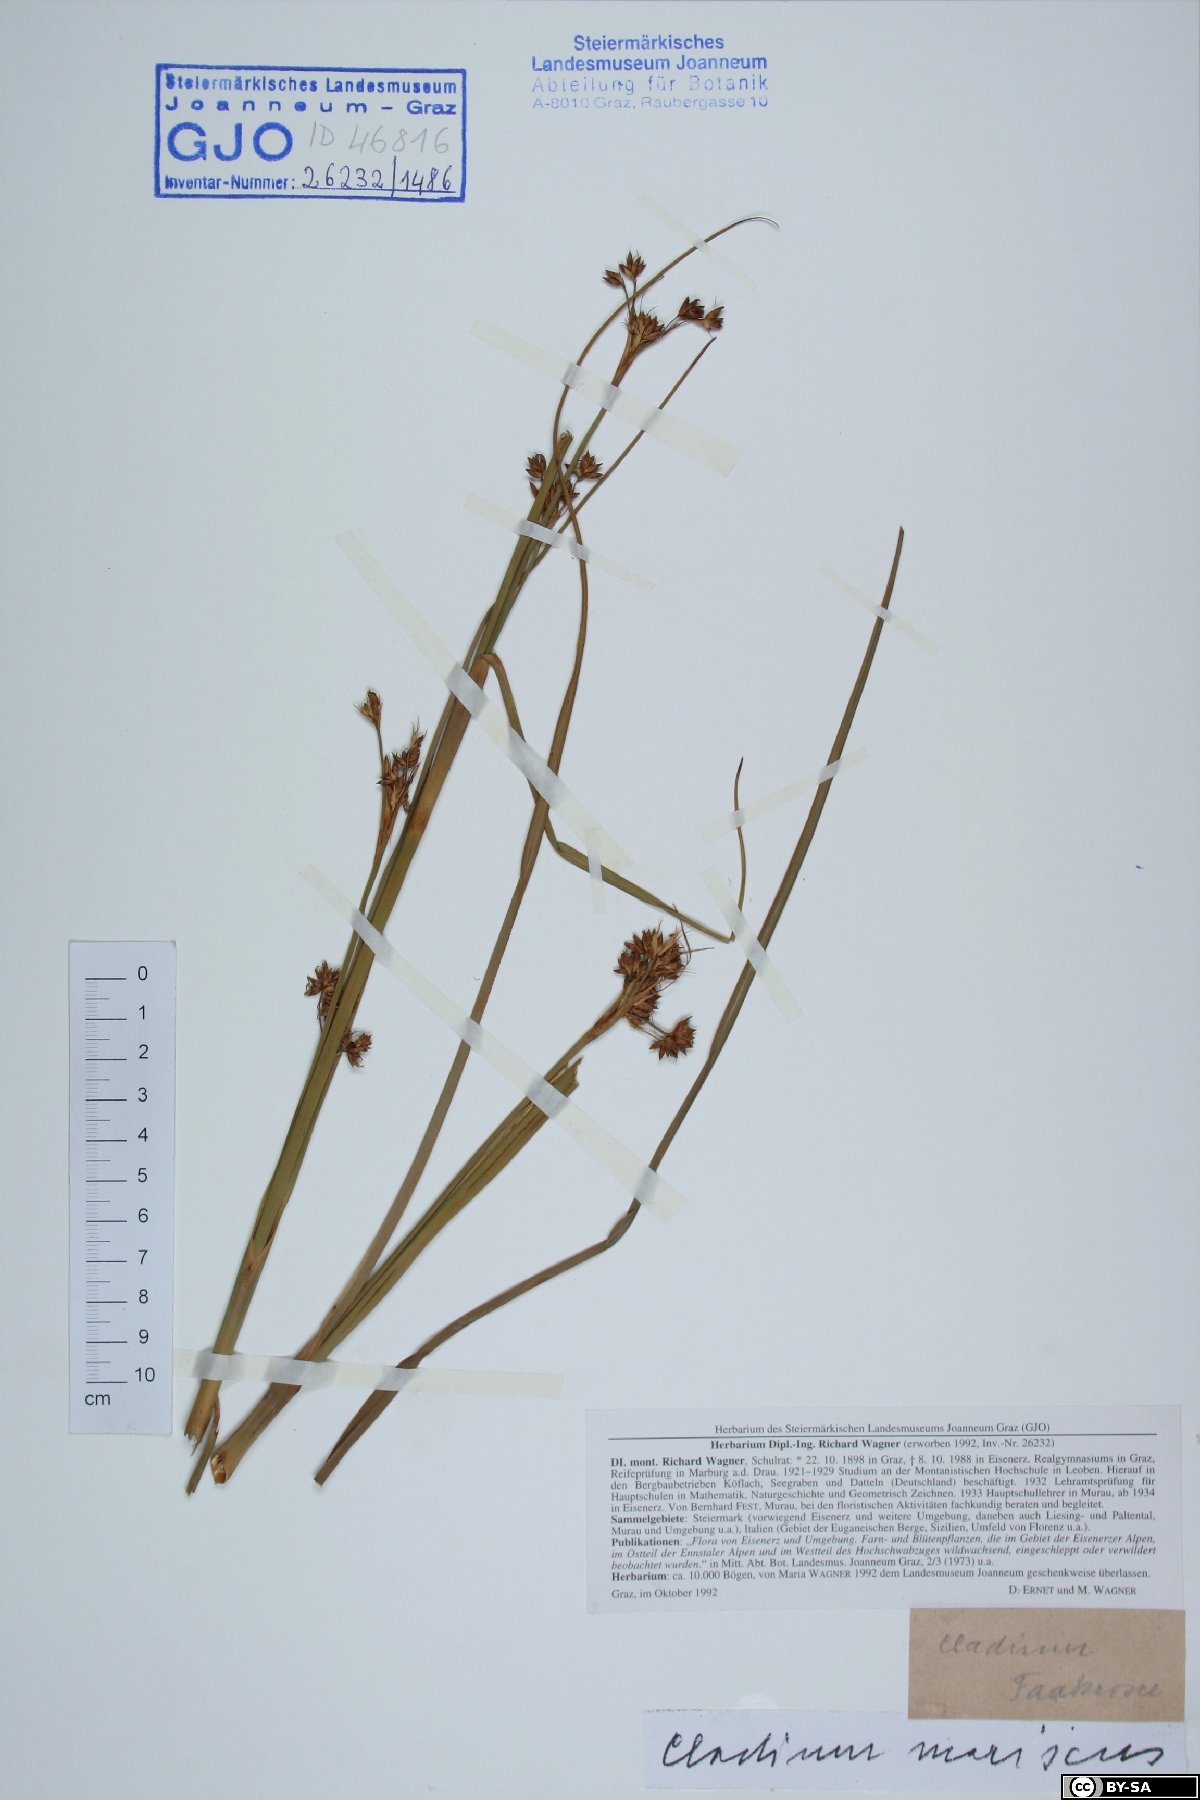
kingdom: Plantae
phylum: Tracheophyta
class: Liliopsida
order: Poales
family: Cyperaceae
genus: Cladium
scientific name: Cladium mariscus
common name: Great fen-sedge
